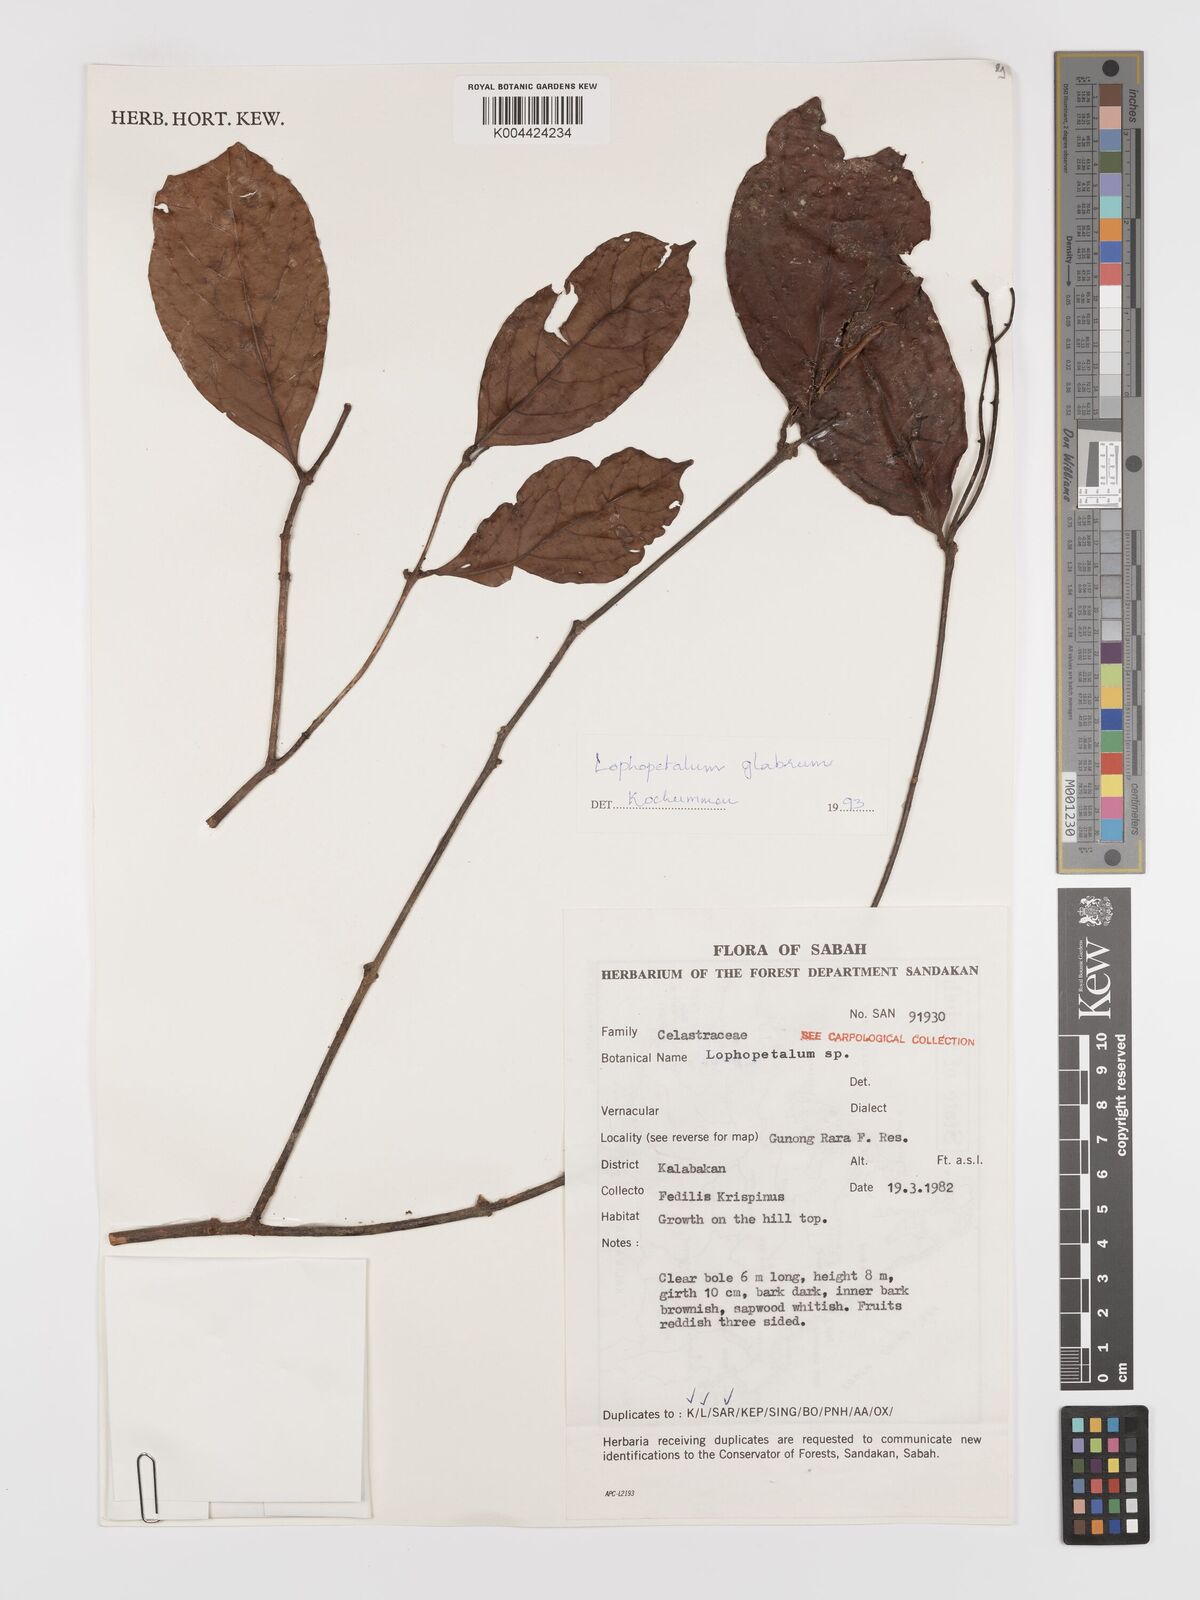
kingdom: Plantae
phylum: Tracheophyta
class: Magnoliopsida
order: Celastrales
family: Celastraceae
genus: Lophopetalum
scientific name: Lophopetalum glabrum
